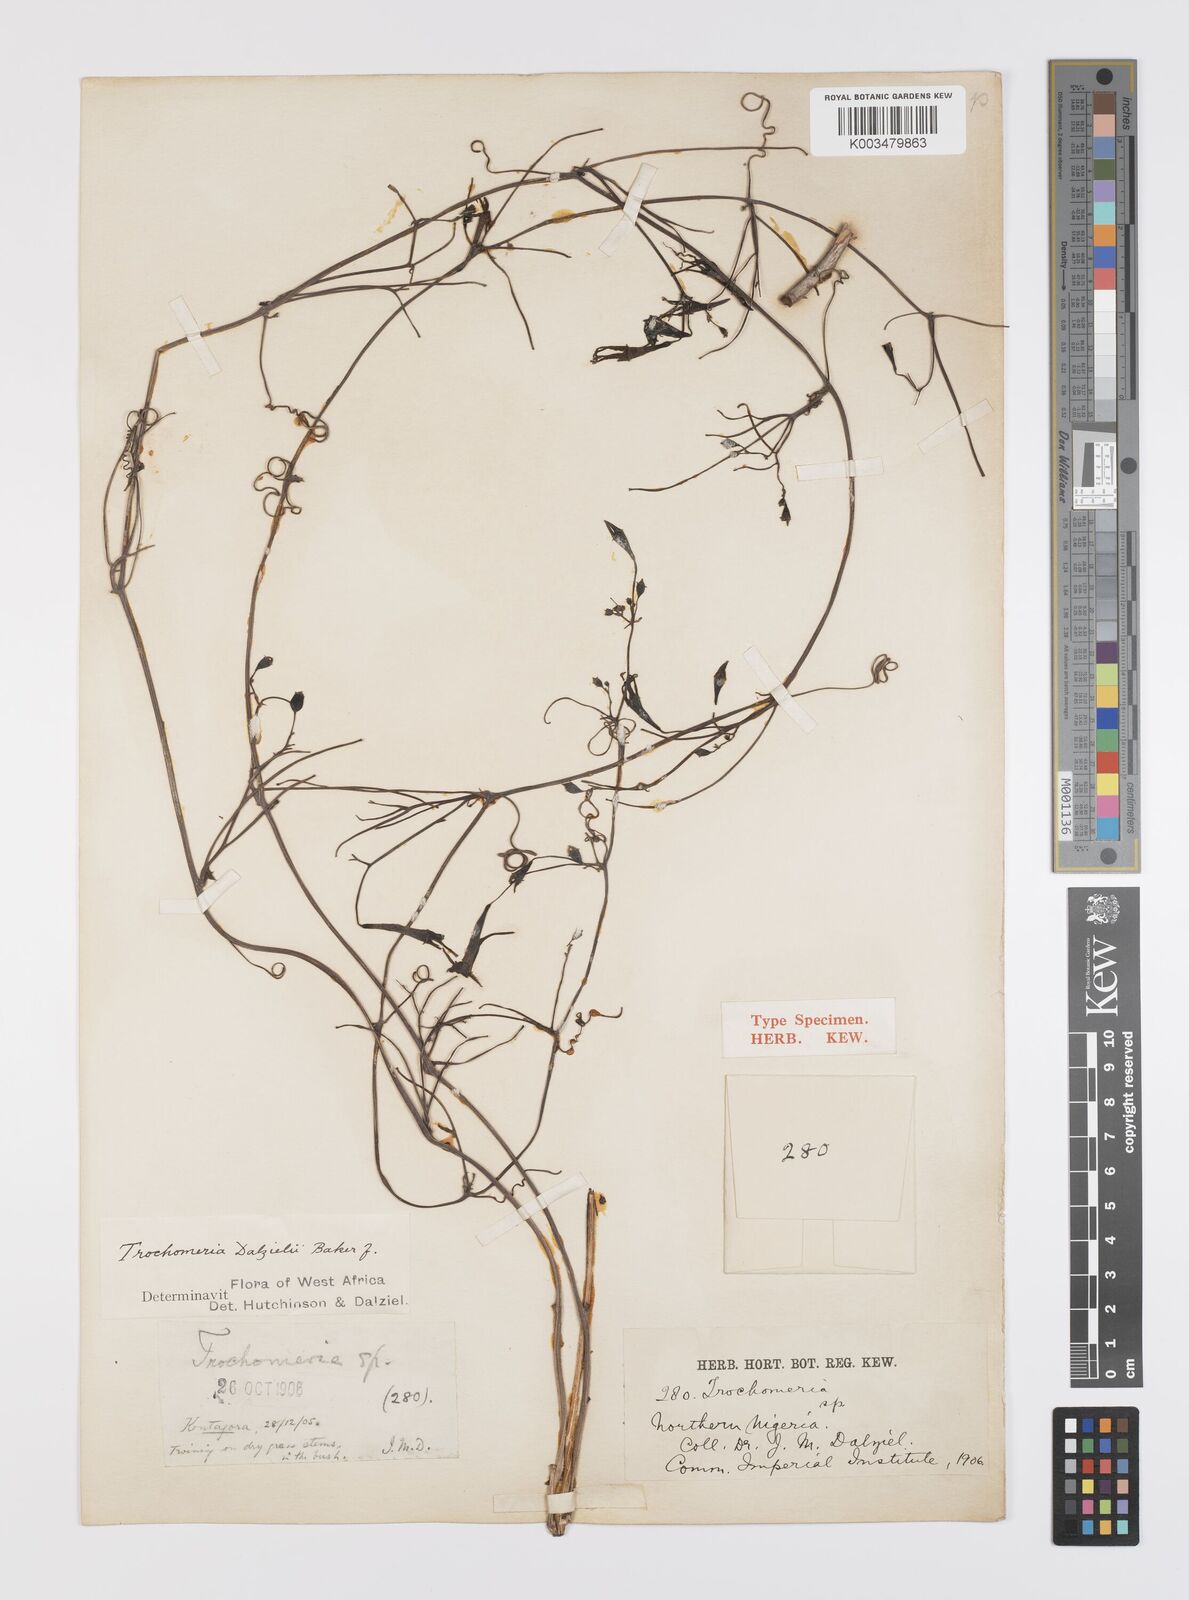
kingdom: Plantae
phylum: Tracheophyta
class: Magnoliopsida
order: Cucurbitales
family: Cucurbitaceae
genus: Trochomeria
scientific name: Trochomeria macrocarpa
